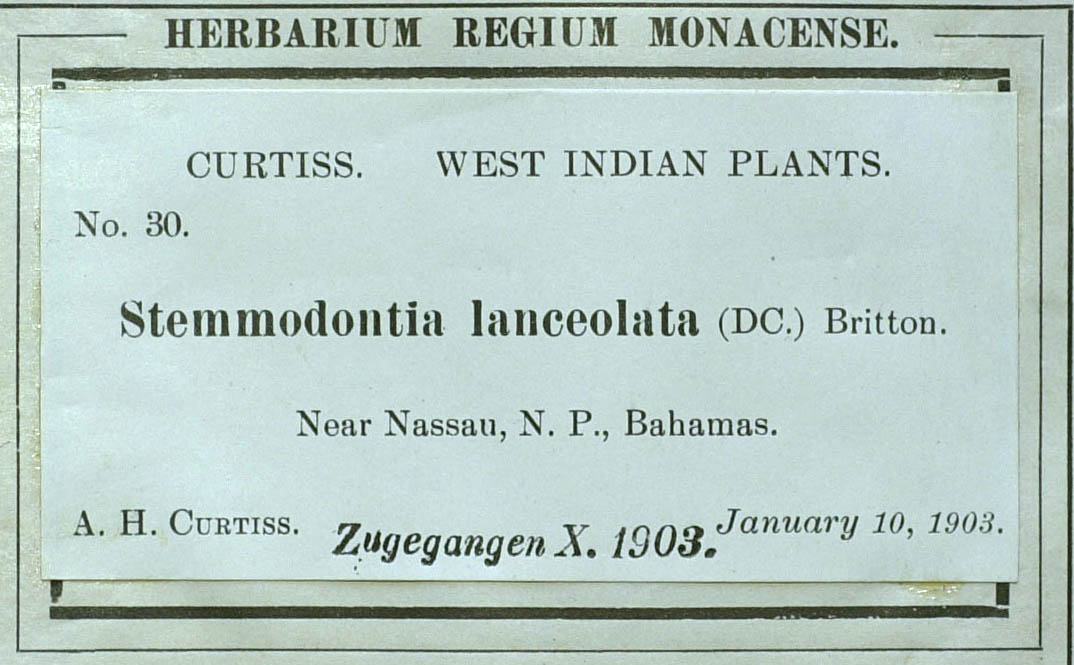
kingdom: Plantae
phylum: Tracheophyta
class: Magnoliopsida
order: Asterales
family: Asteraceae
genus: Wedelia
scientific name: Wedelia bahamensis
